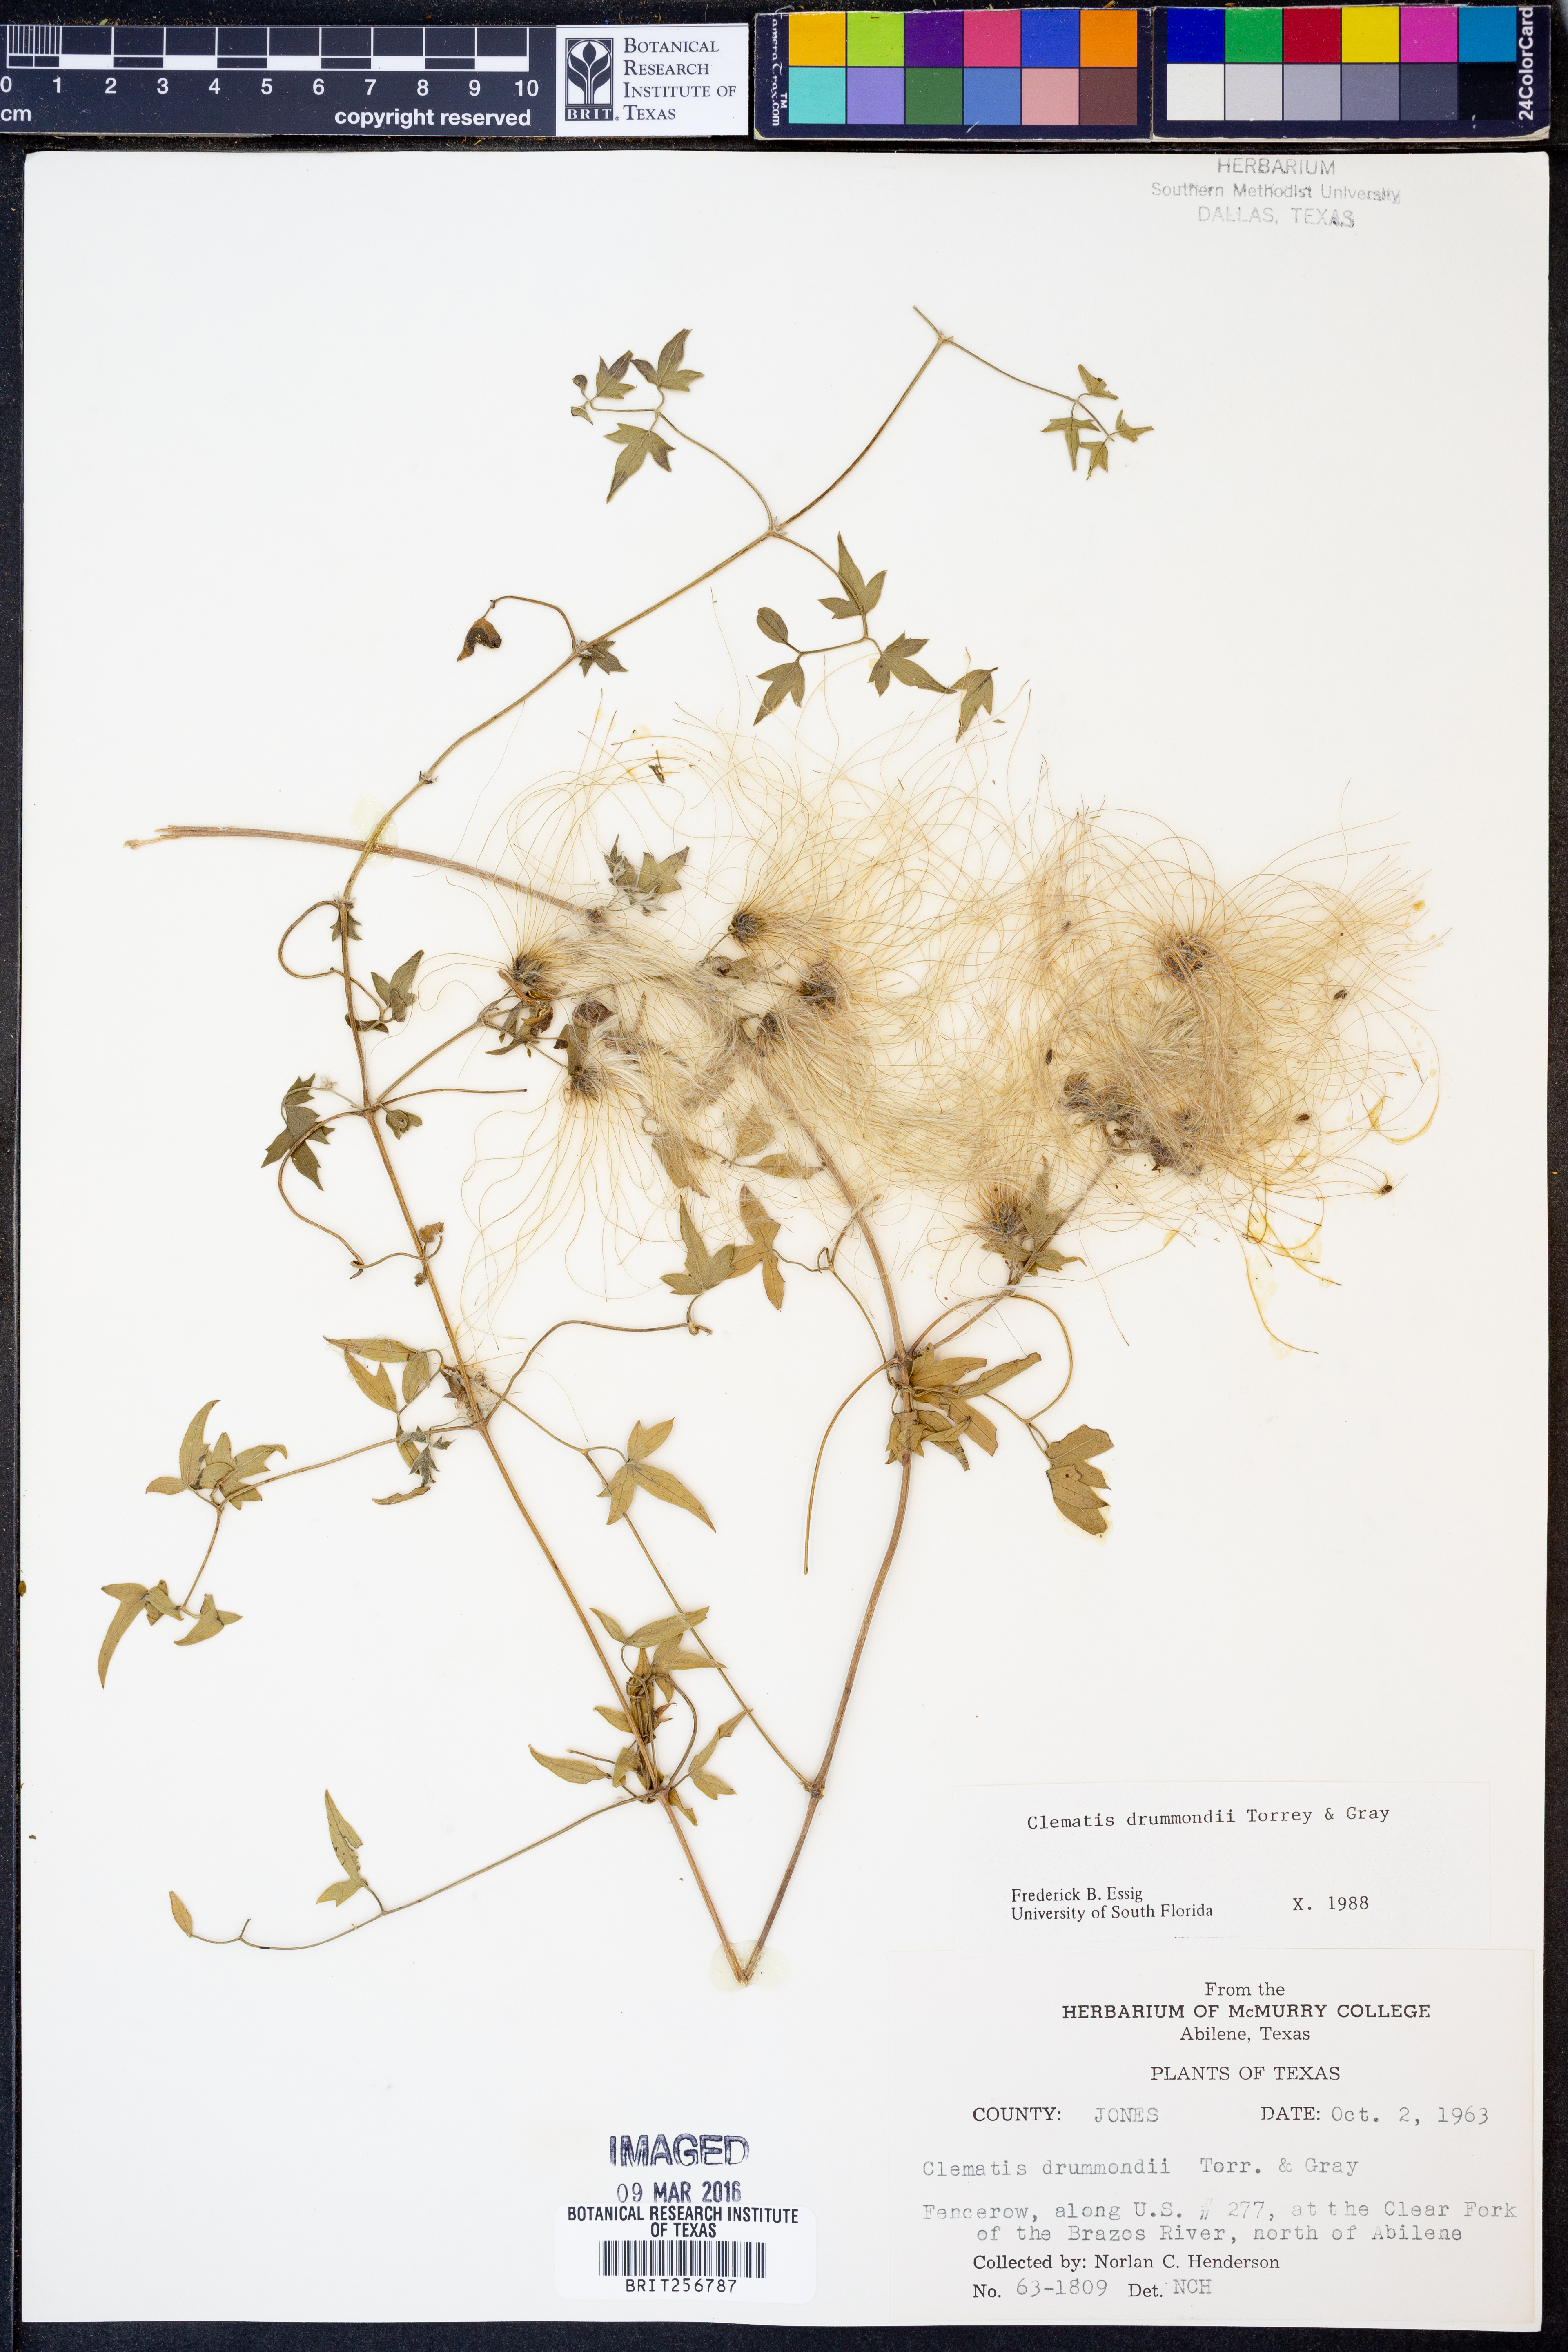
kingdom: Plantae
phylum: Tracheophyta
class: Magnoliopsida
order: Ranunculales
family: Ranunculaceae
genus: Clematis
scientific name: Clematis drummondii
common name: Texas virgin's bower
